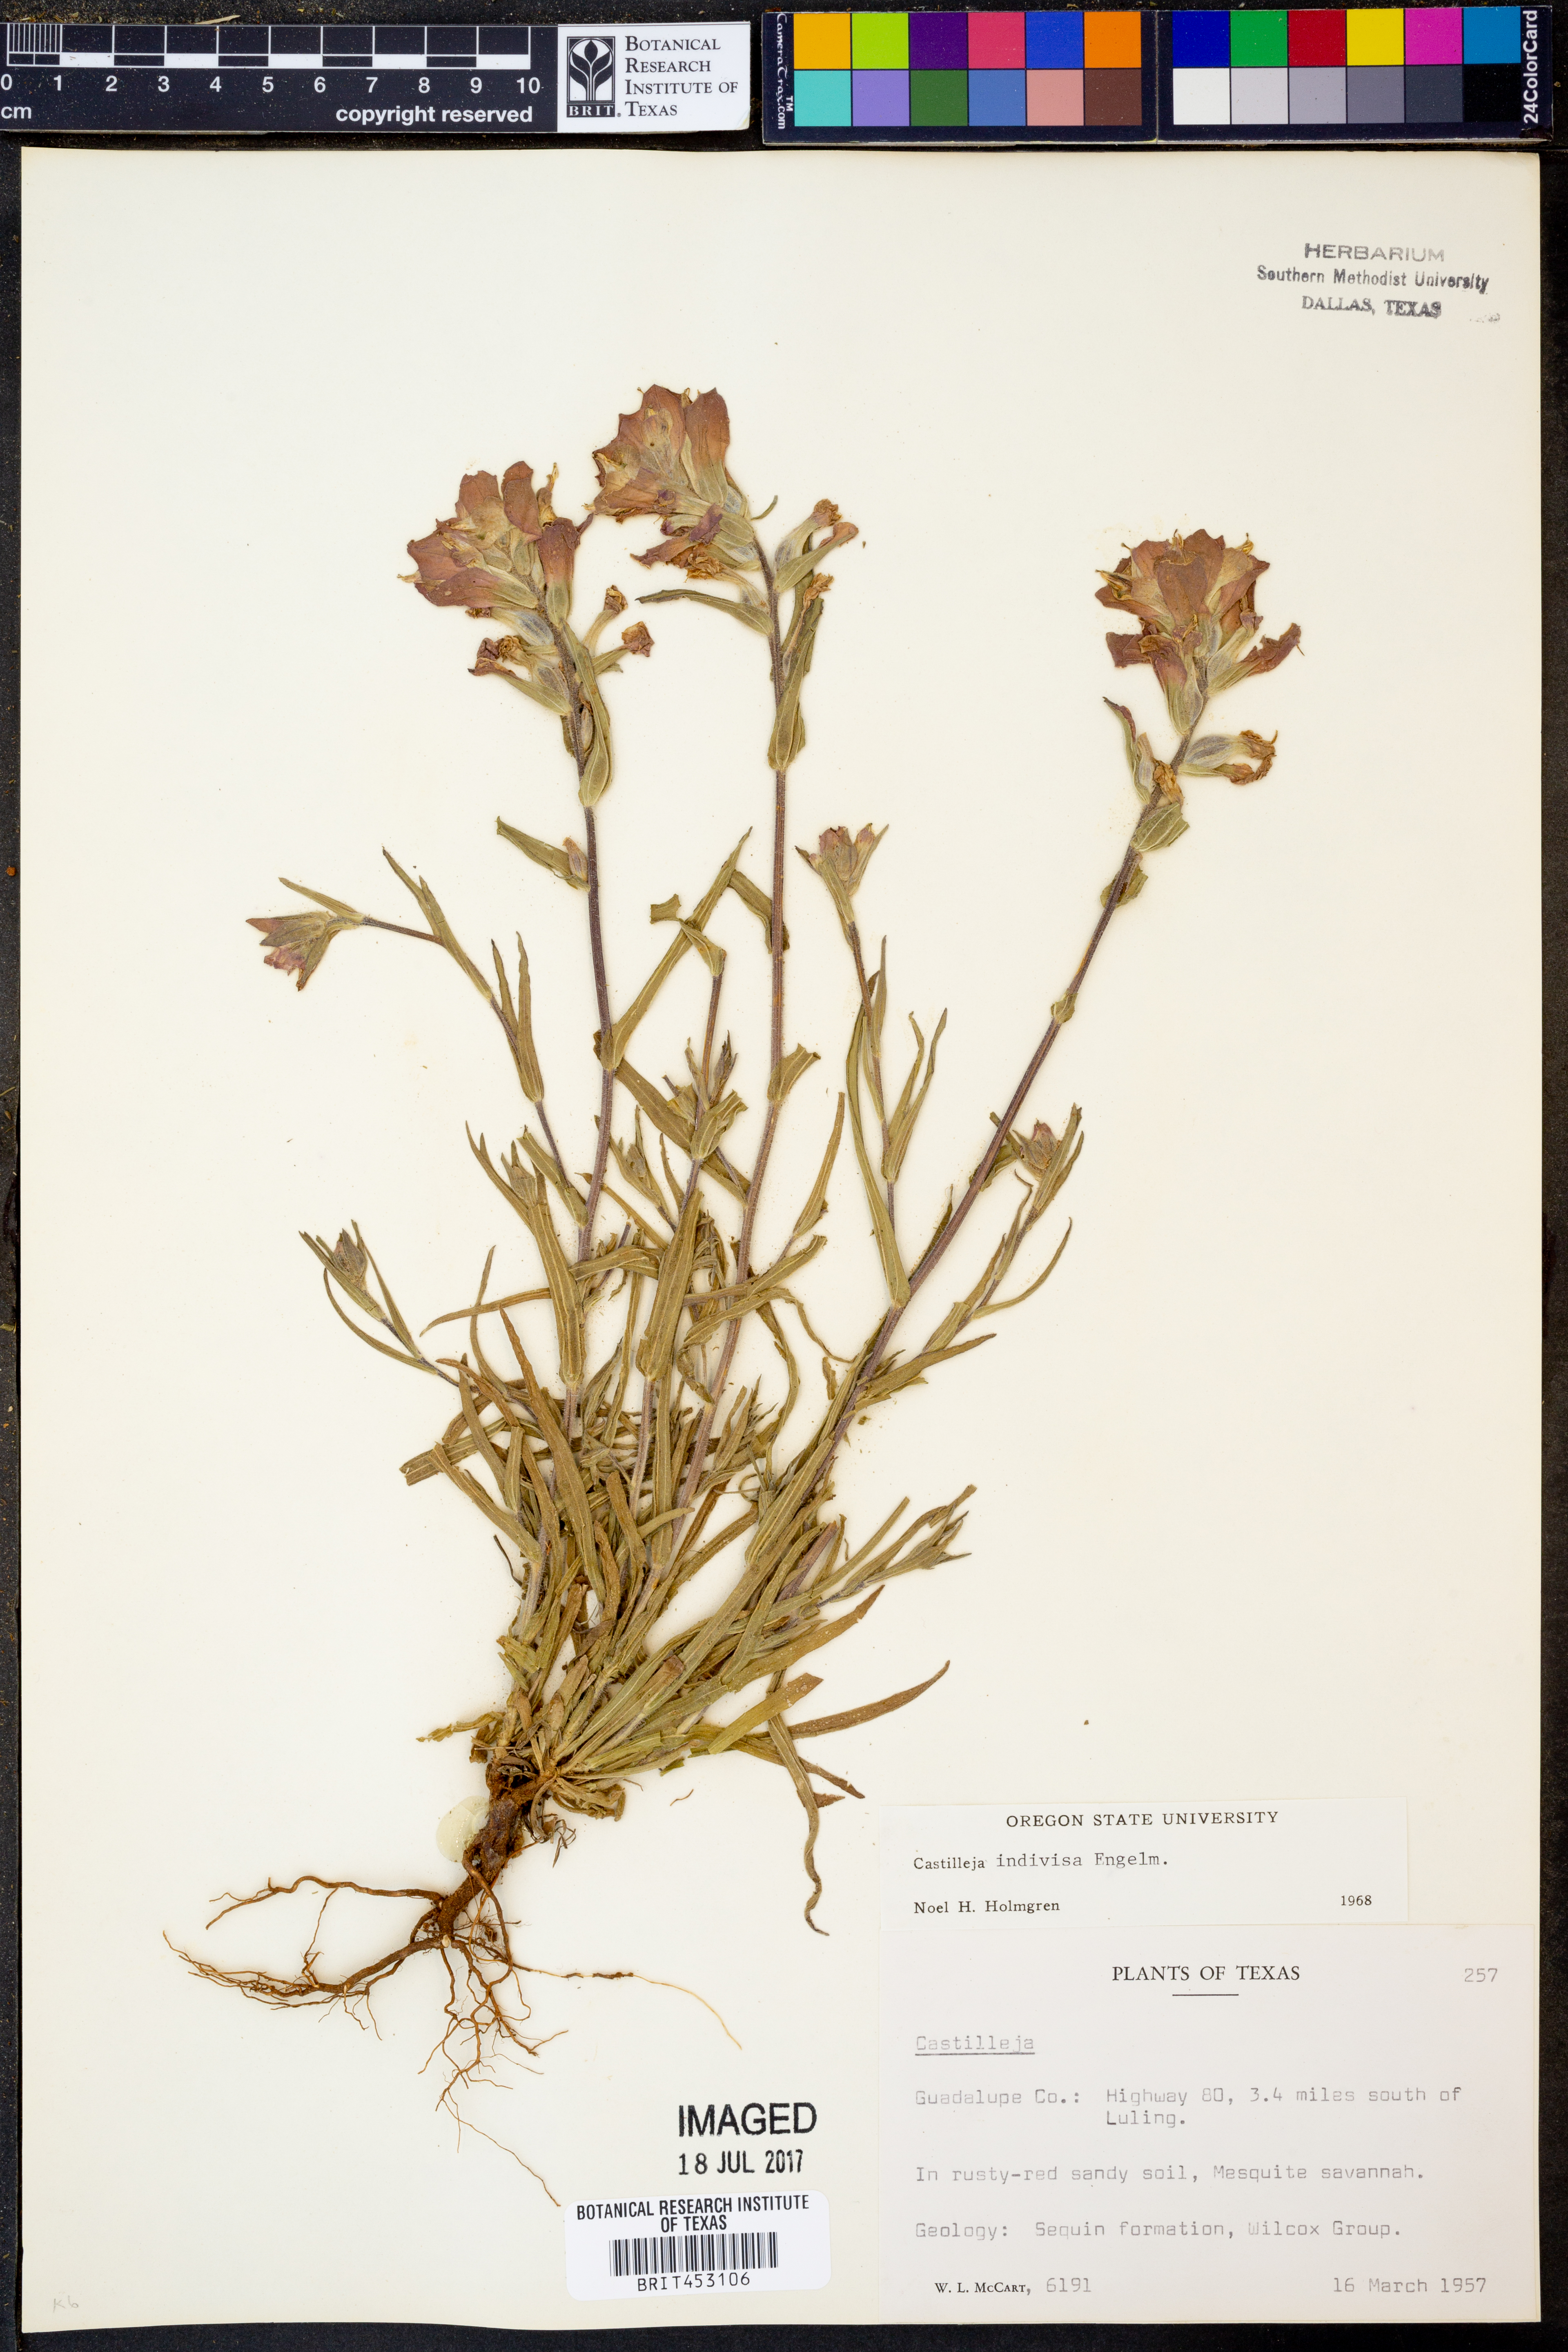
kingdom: Plantae
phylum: Tracheophyta
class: Magnoliopsida
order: Lamiales
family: Orobanchaceae
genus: Castilleja
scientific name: Castilleja
